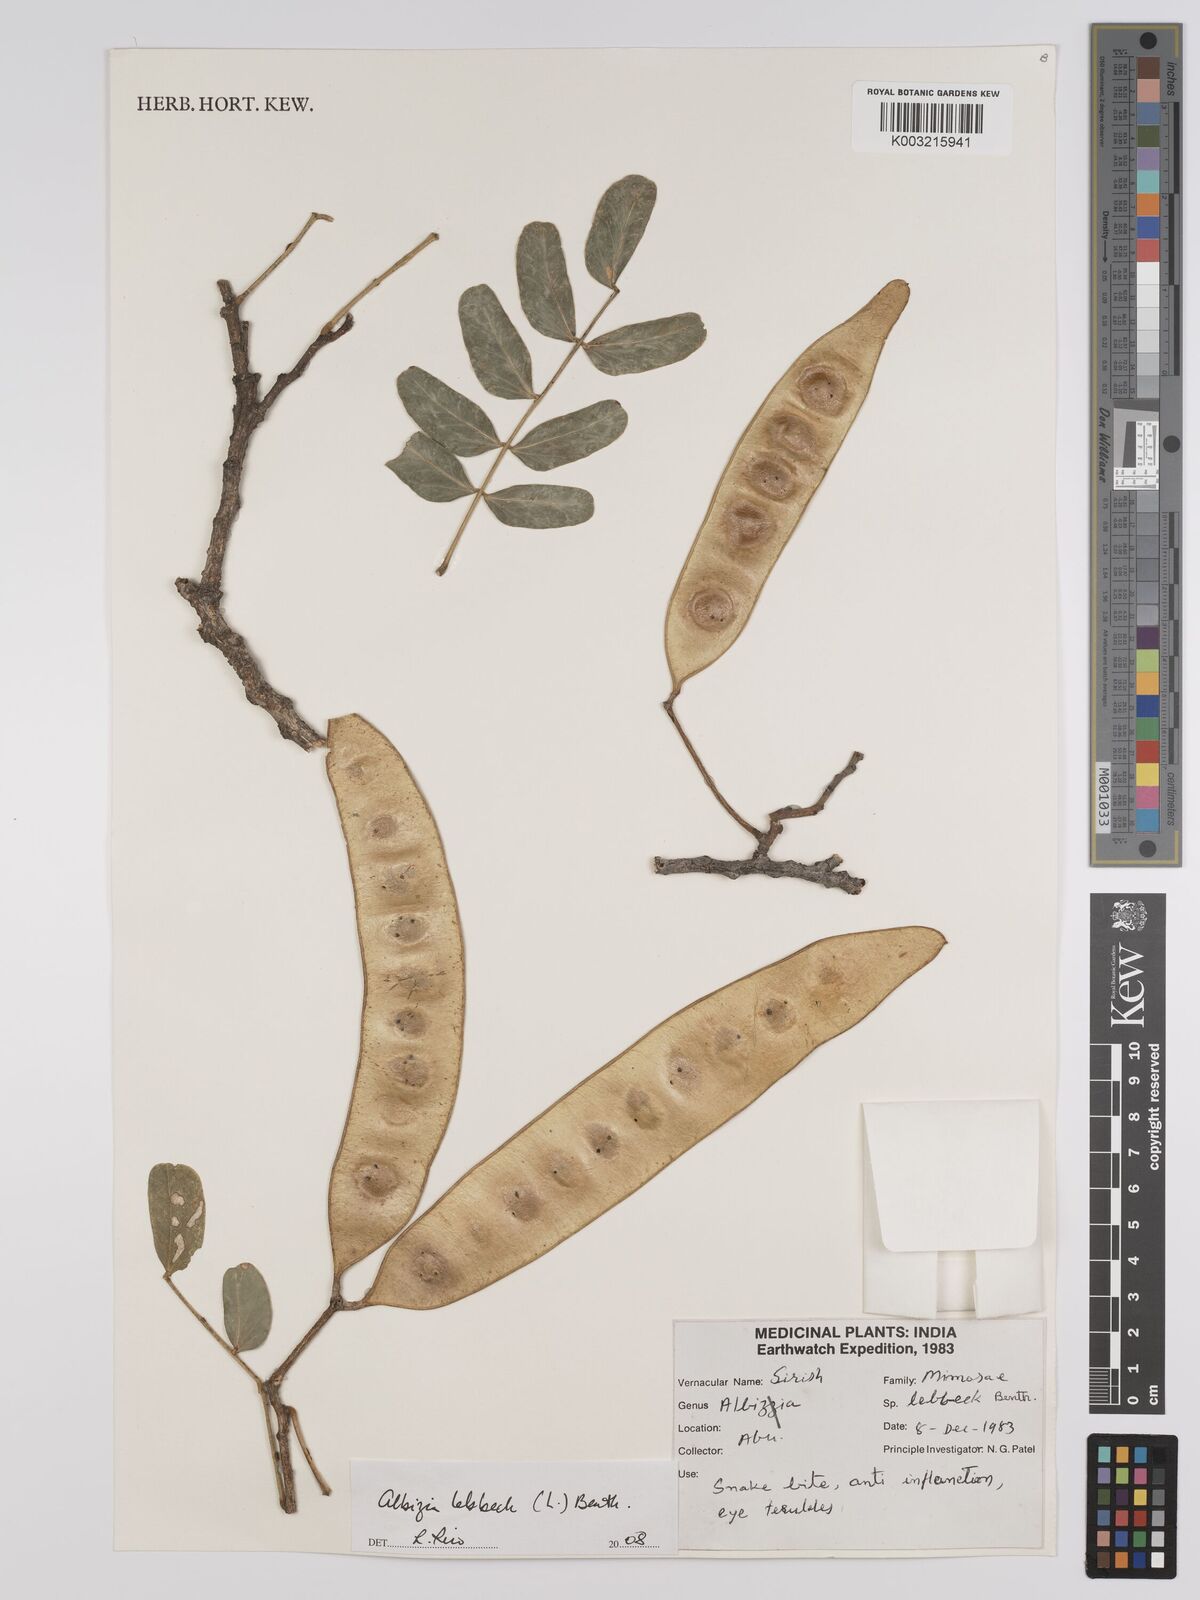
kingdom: Plantae
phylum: Tracheophyta
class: Magnoliopsida
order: Fabales
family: Fabaceae
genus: Albizia
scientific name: Albizia lebbeck
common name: Woman's tongue
